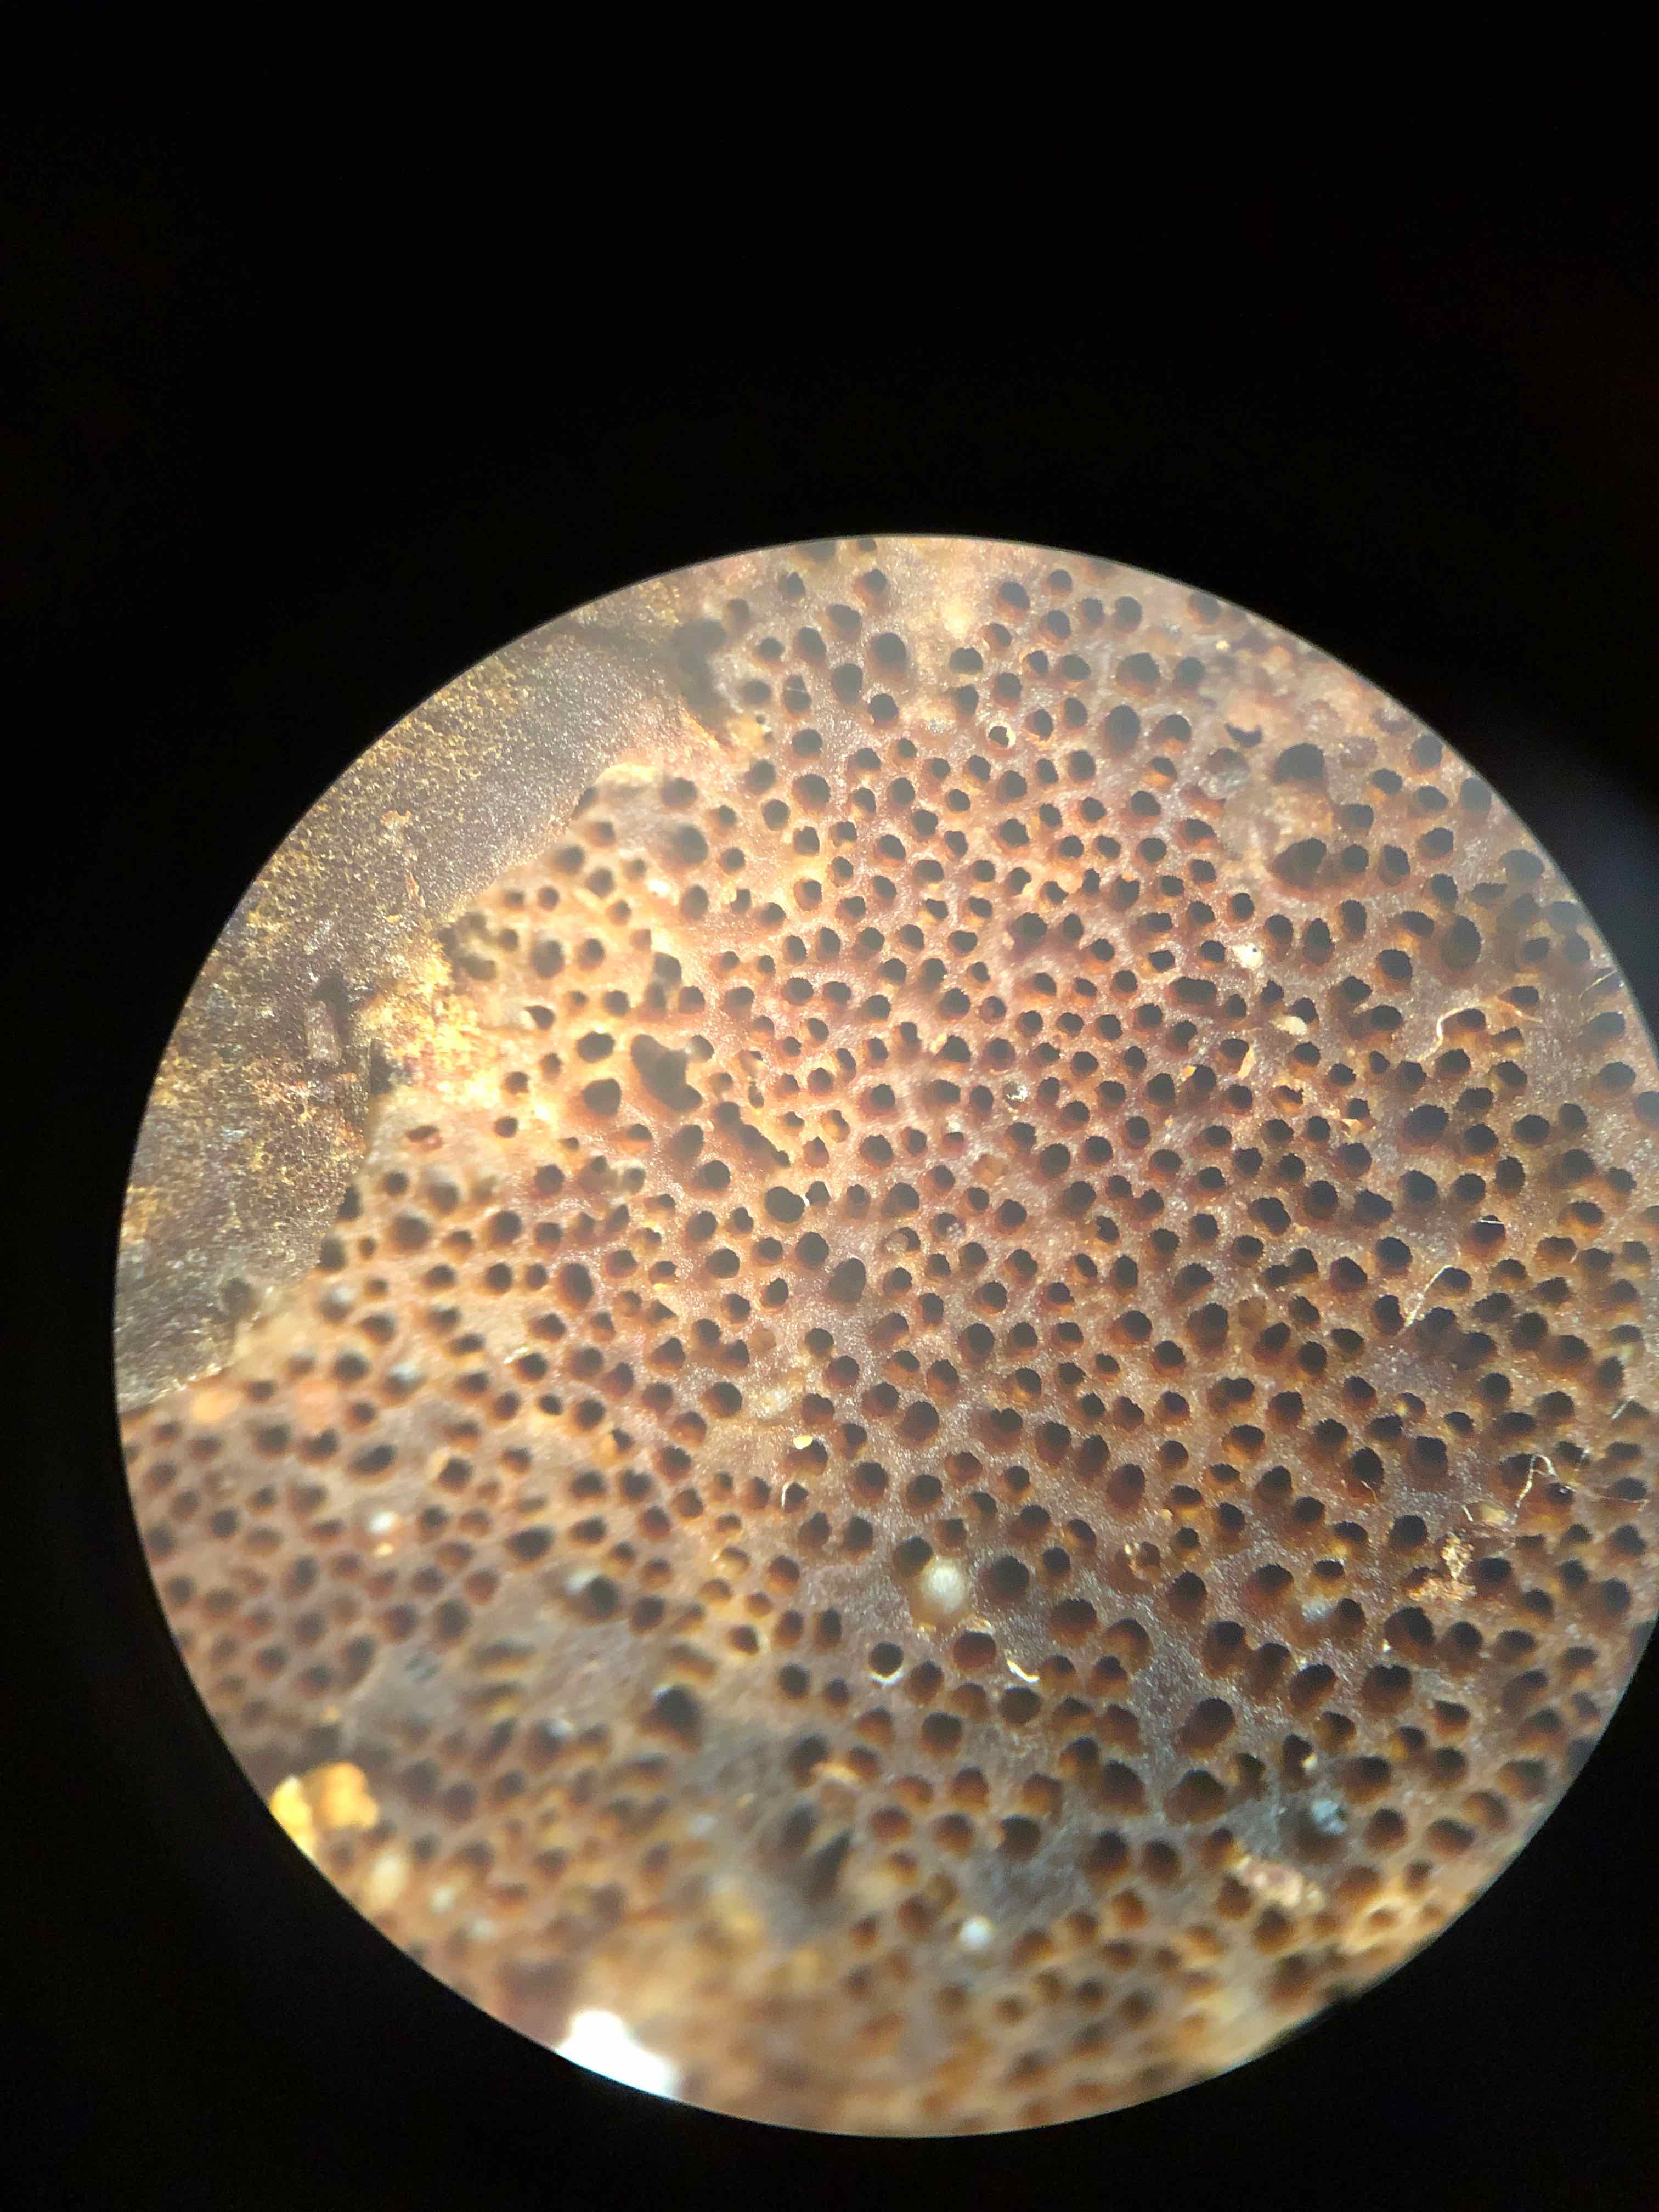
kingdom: Fungi
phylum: Basidiomycota
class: Agaricomycetes
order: Polyporales
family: Ischnodermataceae
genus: Ischnoderma
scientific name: Ischnoderma benzoinum
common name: gran-tjæreporesvamp
